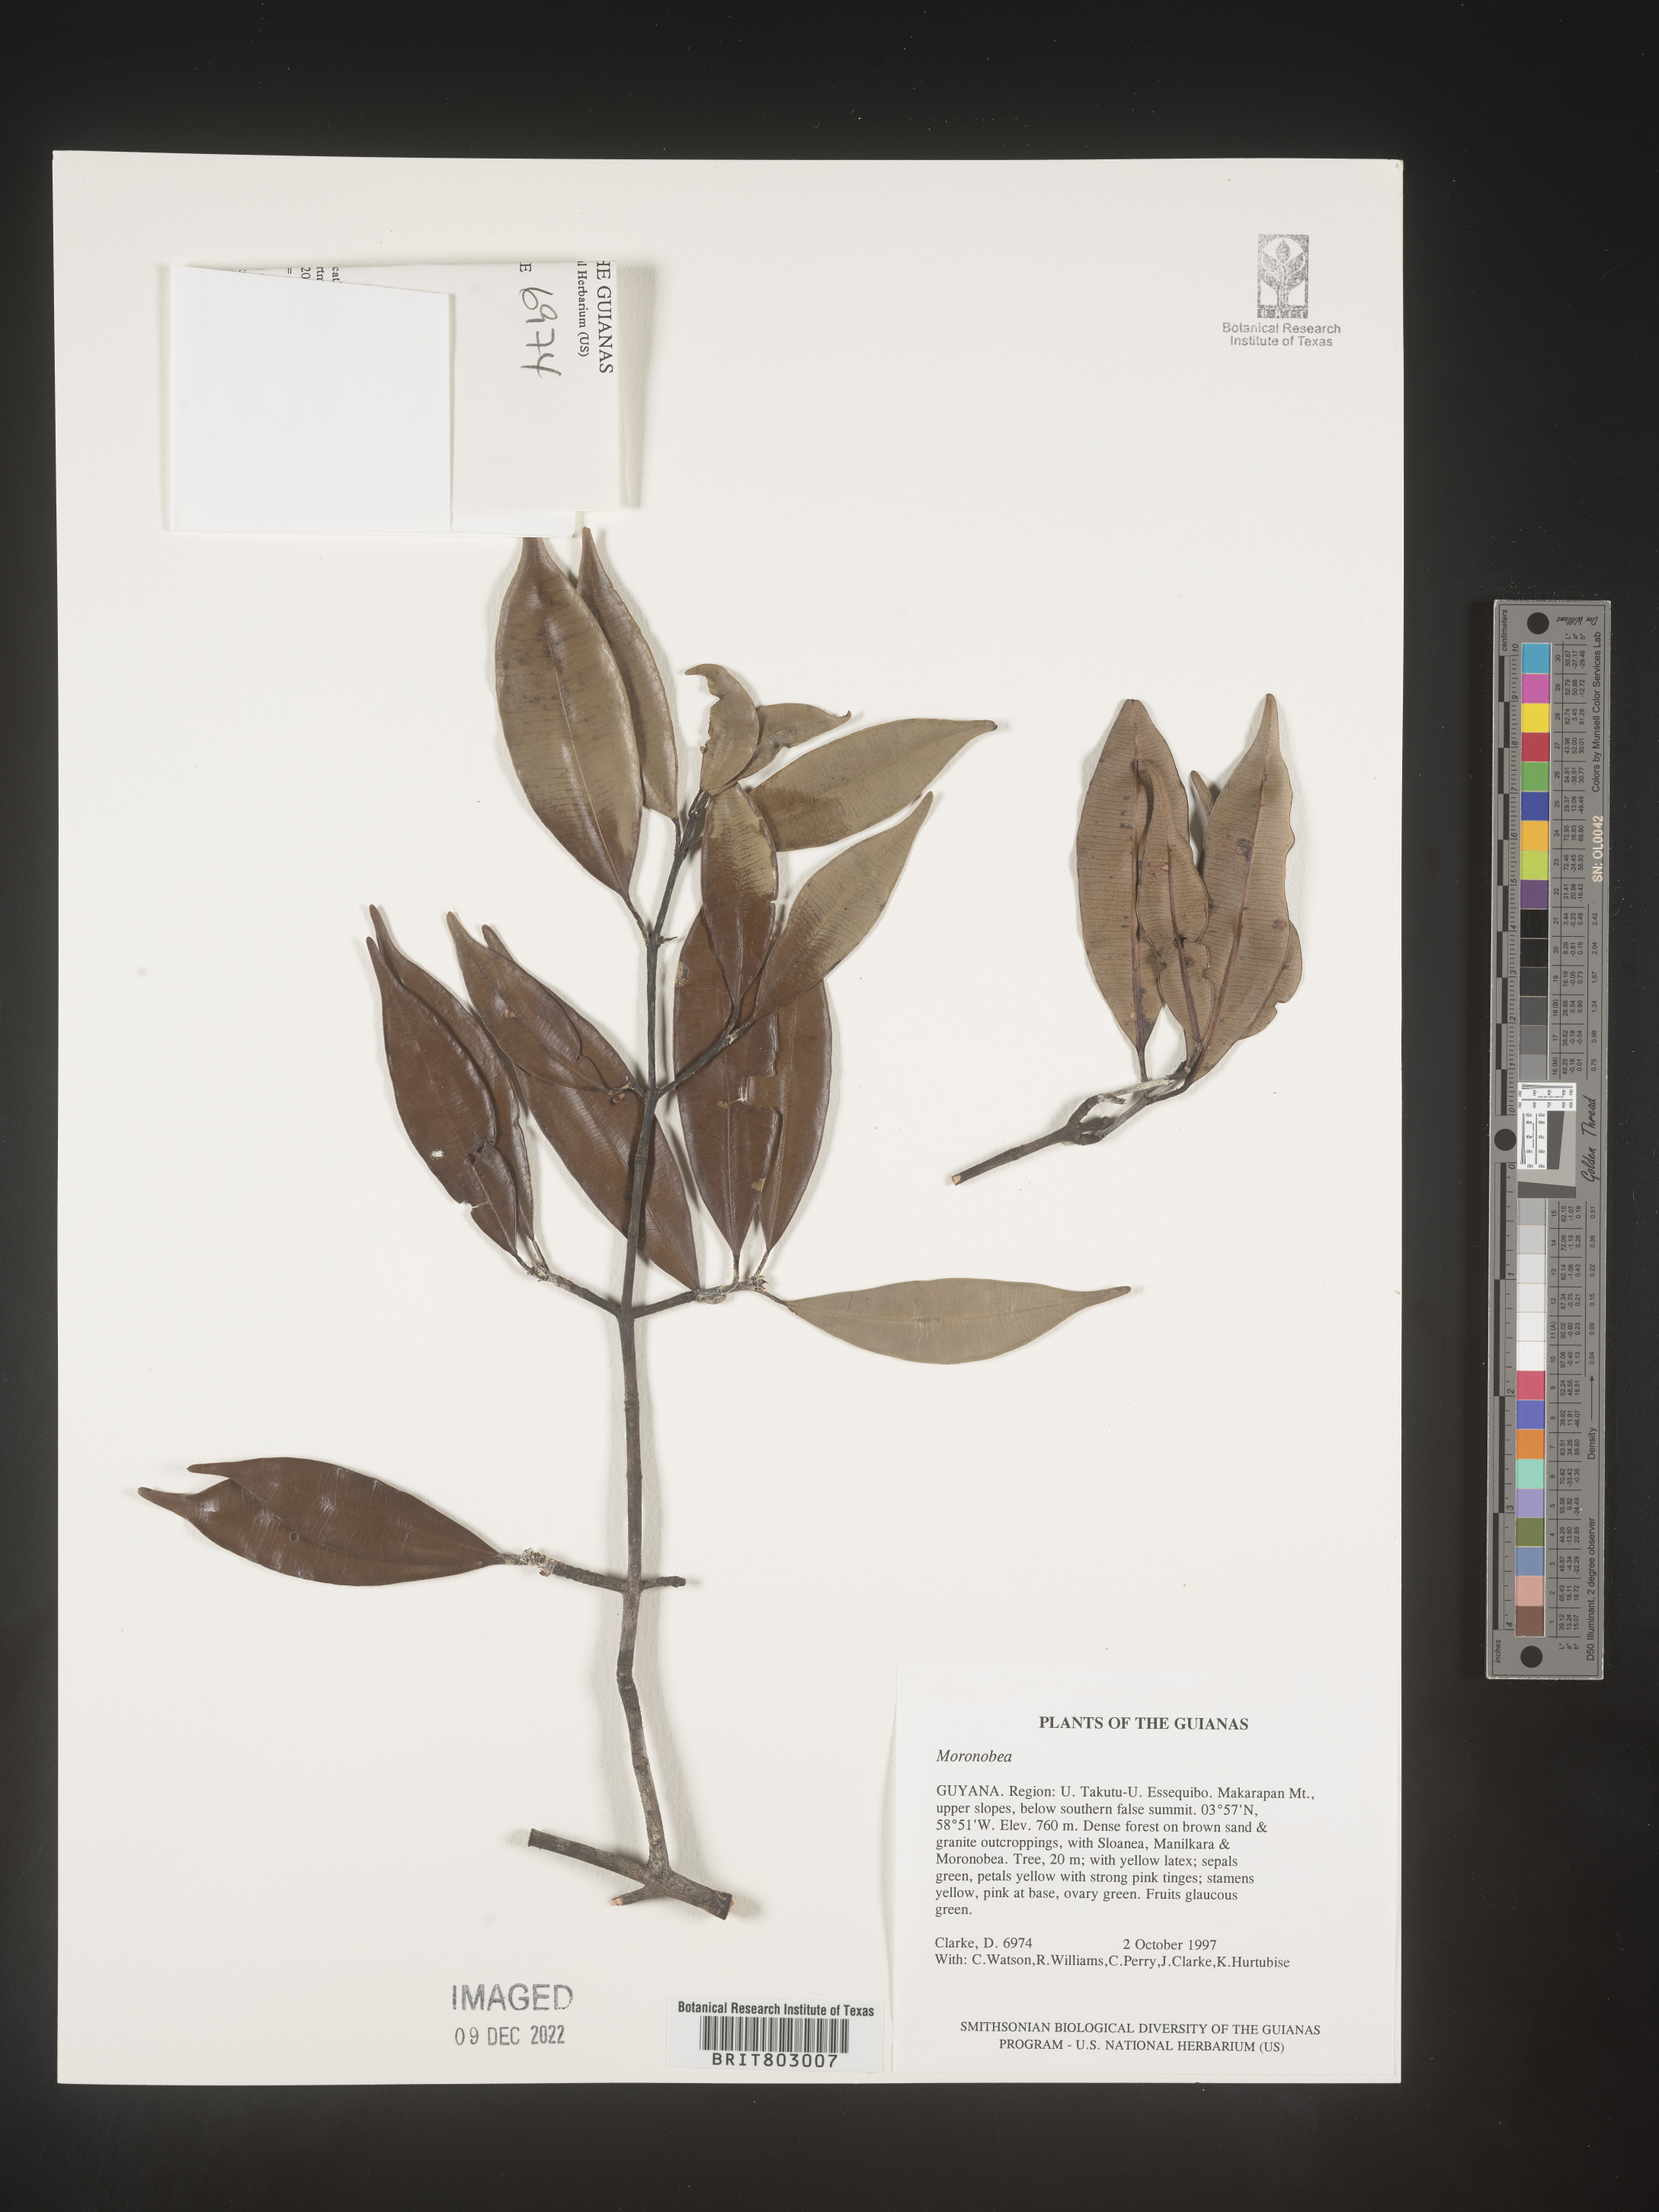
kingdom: Plantae
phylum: Tracheophyta
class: Magnoliopsida
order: Malpighiales
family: Clusiaceae
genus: Moronobea
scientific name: Moronobea
